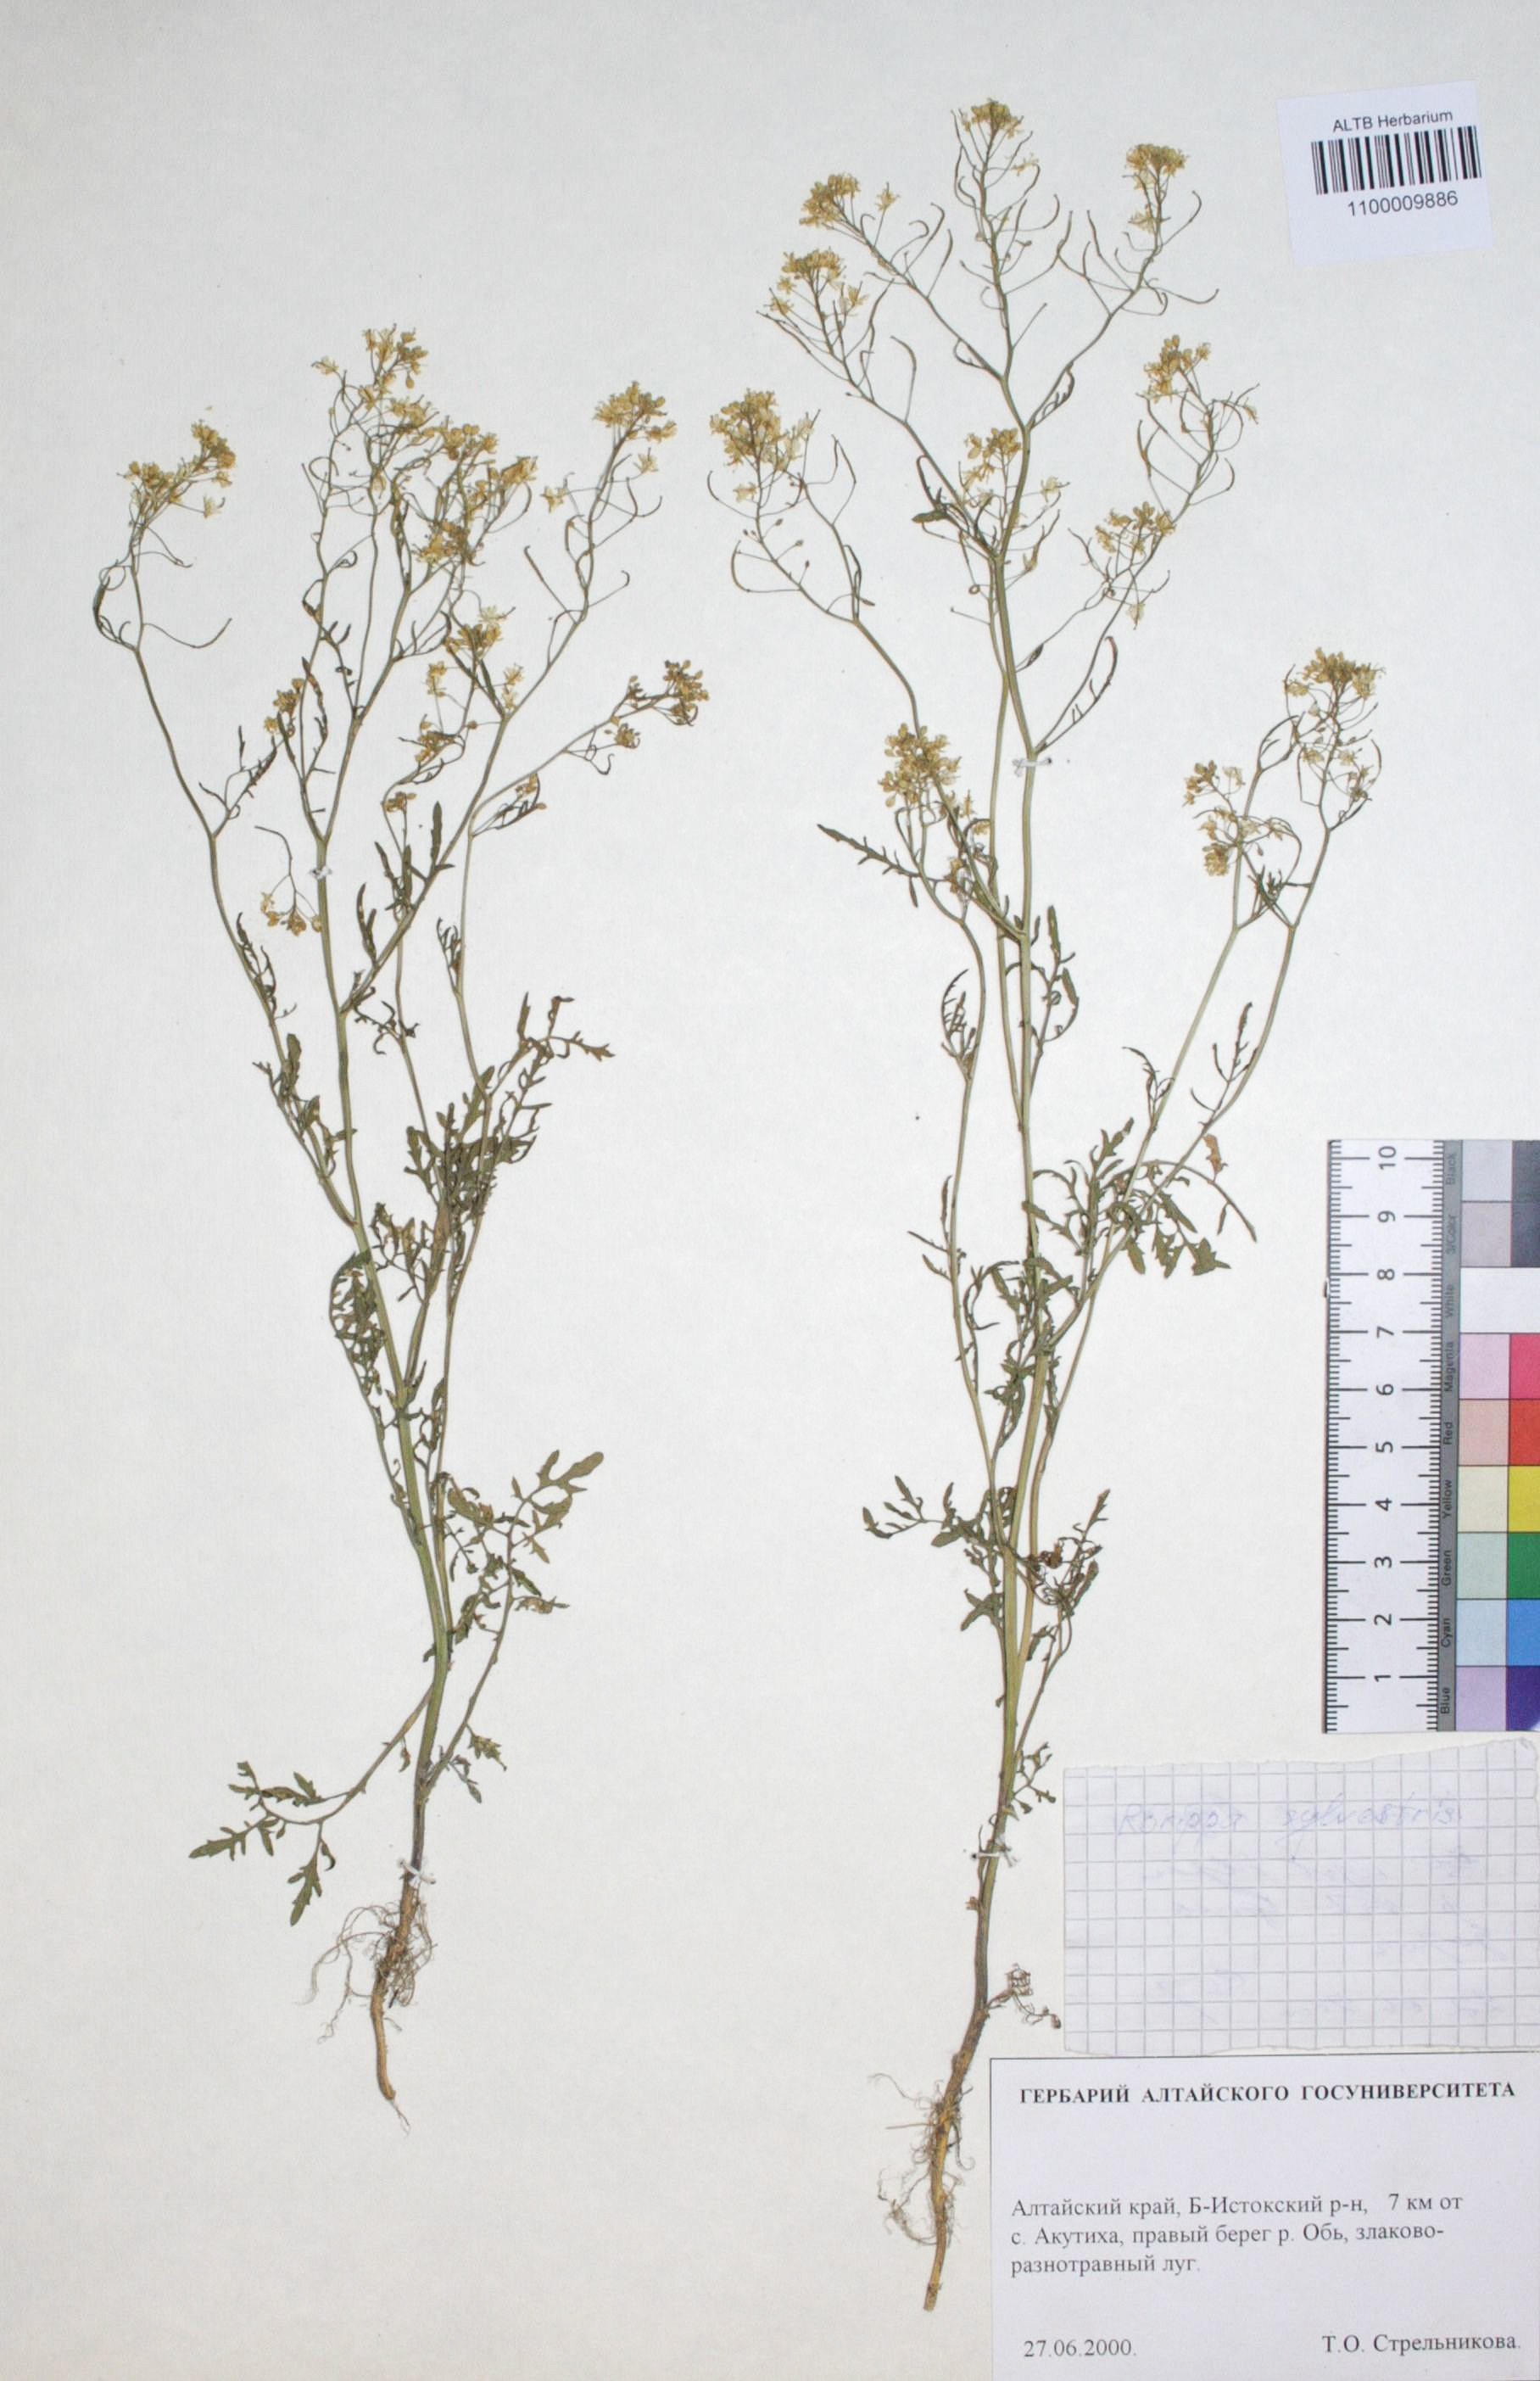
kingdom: Plantae
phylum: Tracheophyta
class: Magnoliopsida
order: Brassicales
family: Brassicaceae
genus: Rorippa
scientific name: Rorippa sylvestris
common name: Creeping yellowcress
